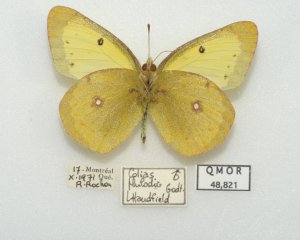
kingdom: Animalia
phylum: Arthropoda
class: Insecta
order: Lepidoptera
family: Pieridae
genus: Colias
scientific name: Colias philodice
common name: Clouded Sulphur
